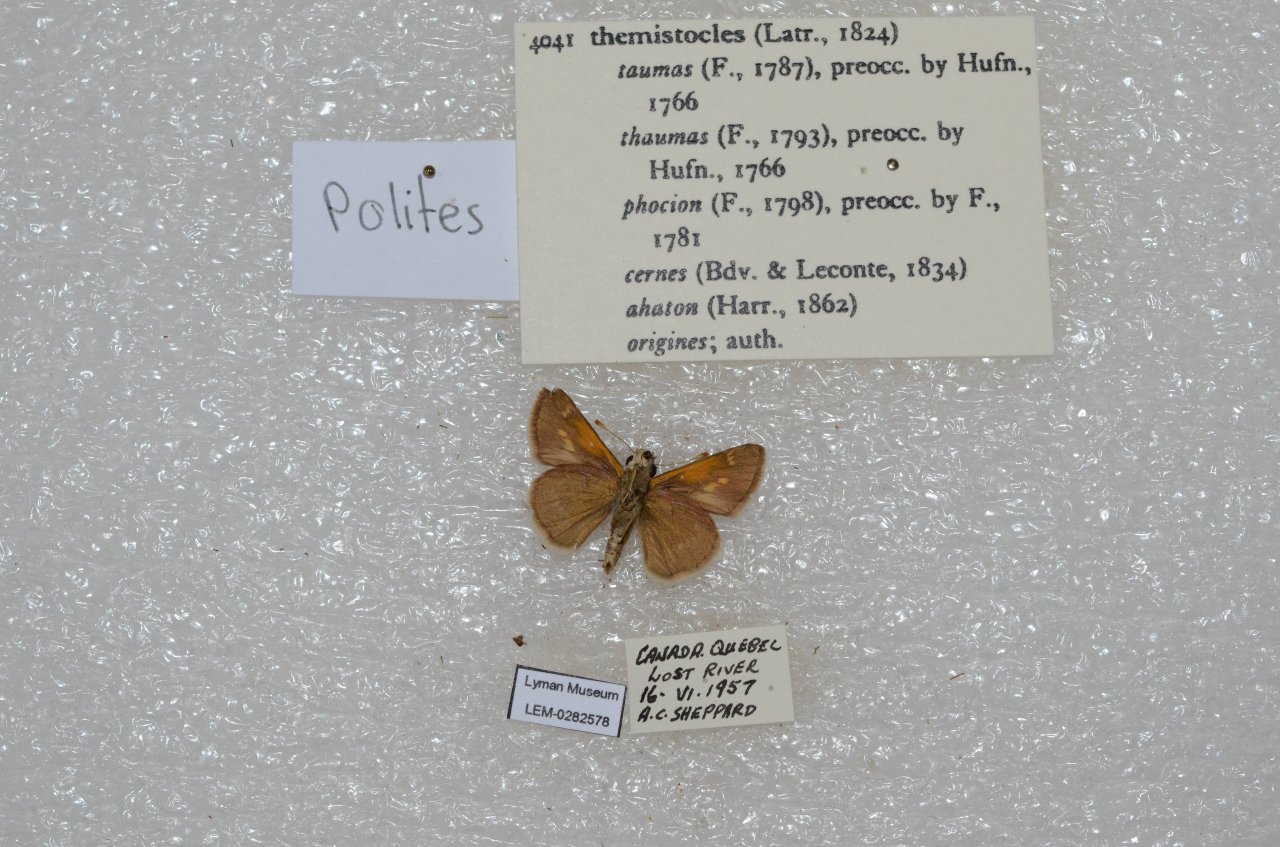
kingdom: Animalia
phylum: Arthropoda
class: Insecta
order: Lepidoptera
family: Hesperiidae
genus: Polites
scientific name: Polites themistocles
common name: Tawny-edged Skipper
